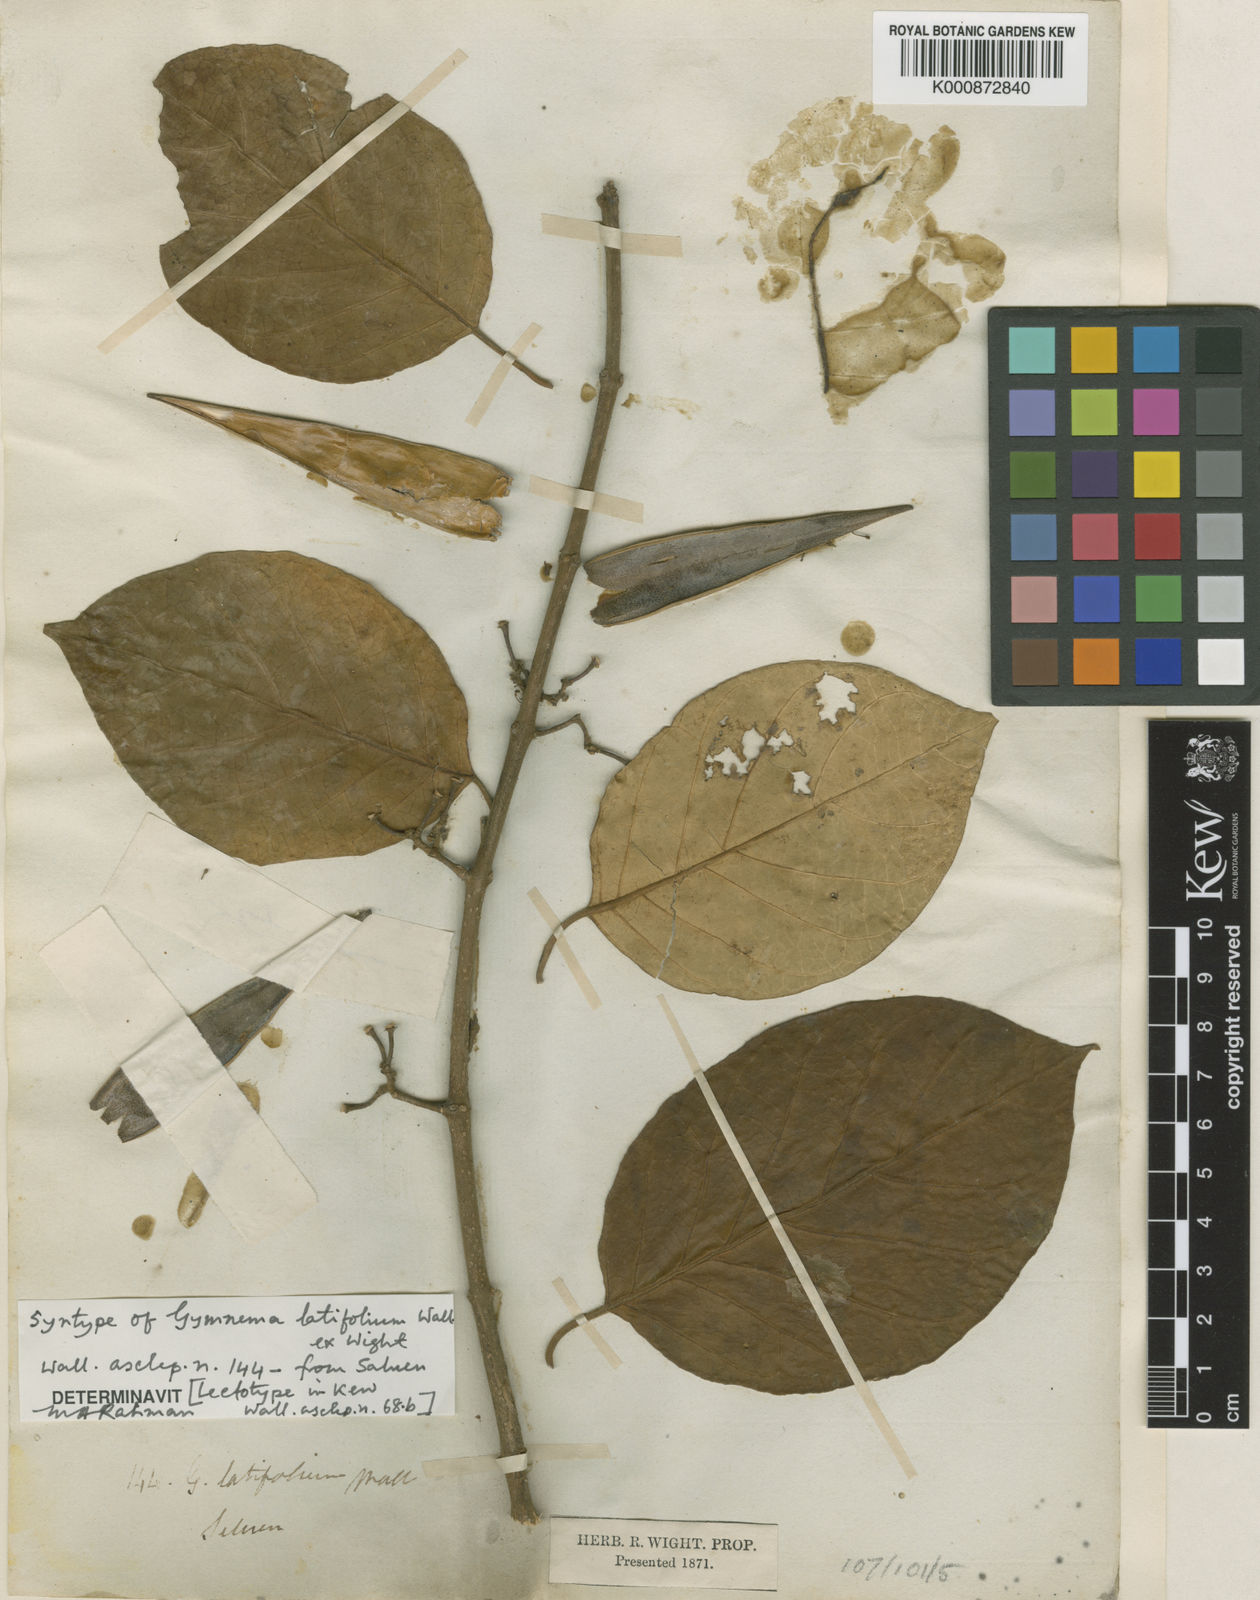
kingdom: Plantae
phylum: Tracheophyta
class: Magnoliopsida
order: Gentianales
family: Apocynaceae
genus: Gymnema
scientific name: Gymnema latifolium
